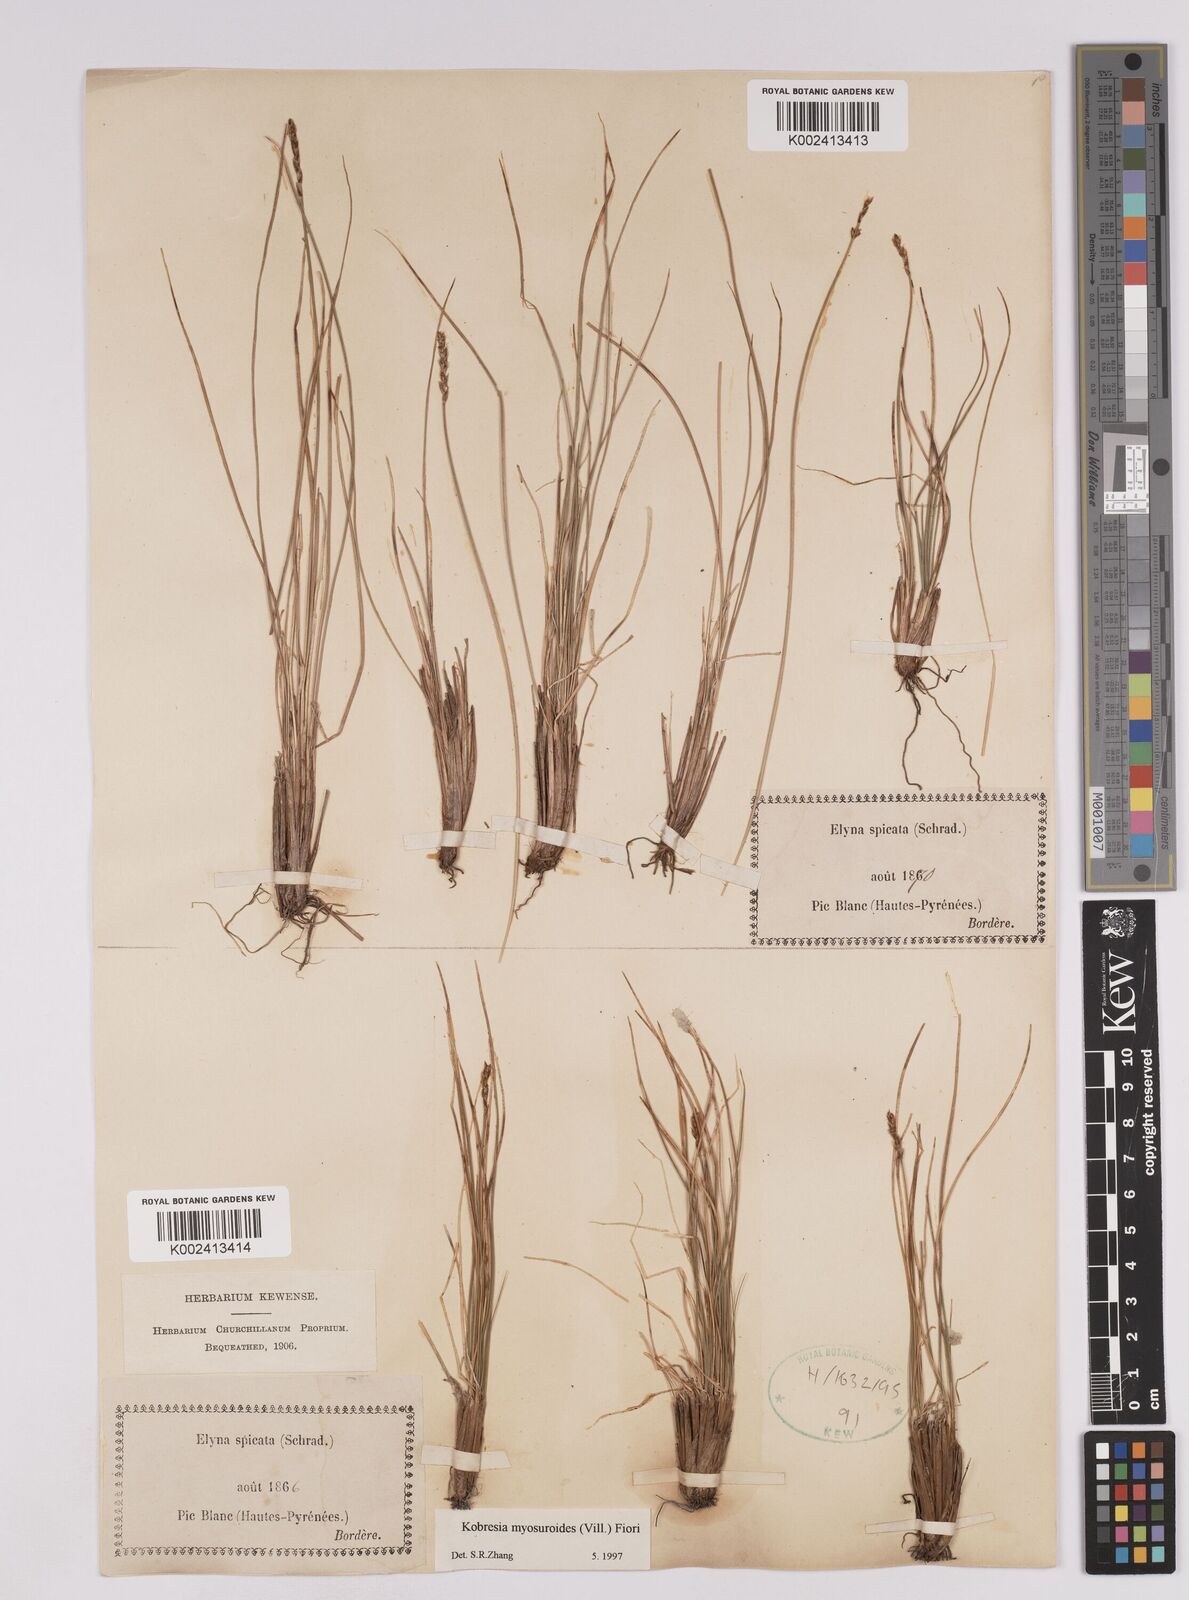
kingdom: Plantae
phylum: Tracheophyta
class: Liliopsida
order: Poales
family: Cyperaceae
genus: Carex
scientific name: Carex myosuroides
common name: Bellard's bog sedge
